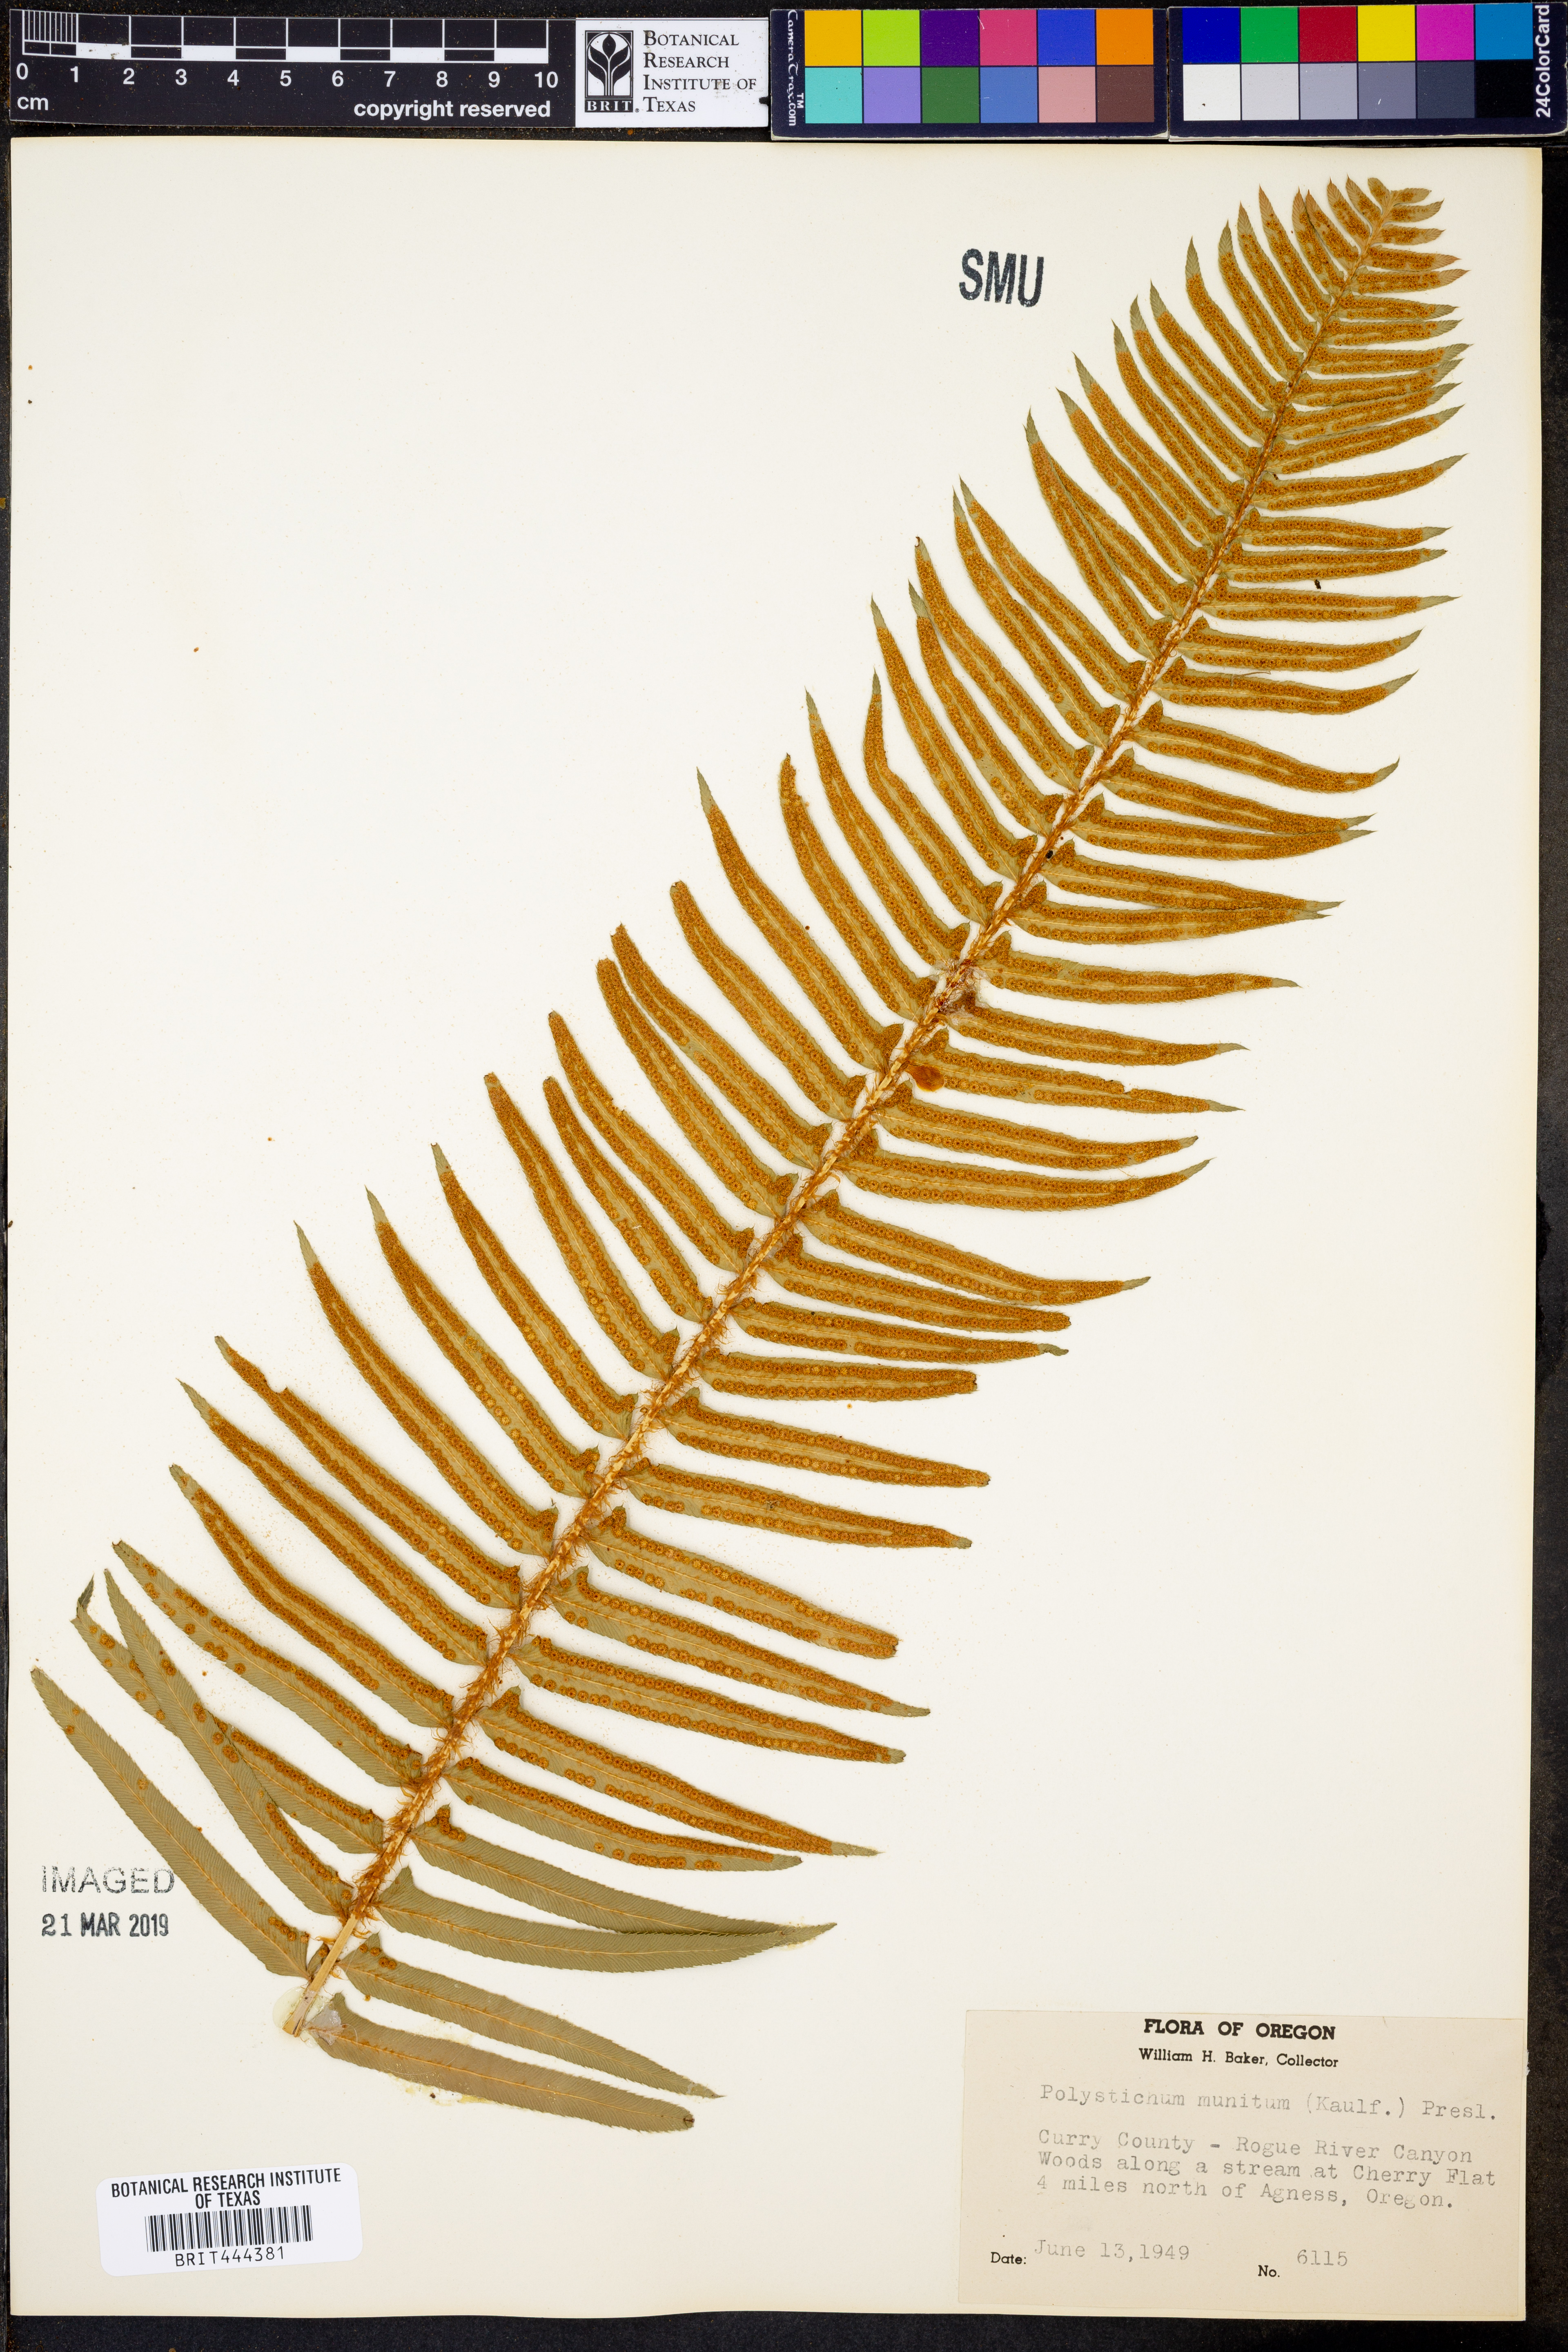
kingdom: Plantae
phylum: Tracheophyta
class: Polypodiopsida
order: Polypodiales
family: Dryopteridaceae
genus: Polystichum
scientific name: Polystichum munitum
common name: Western sword-fern
